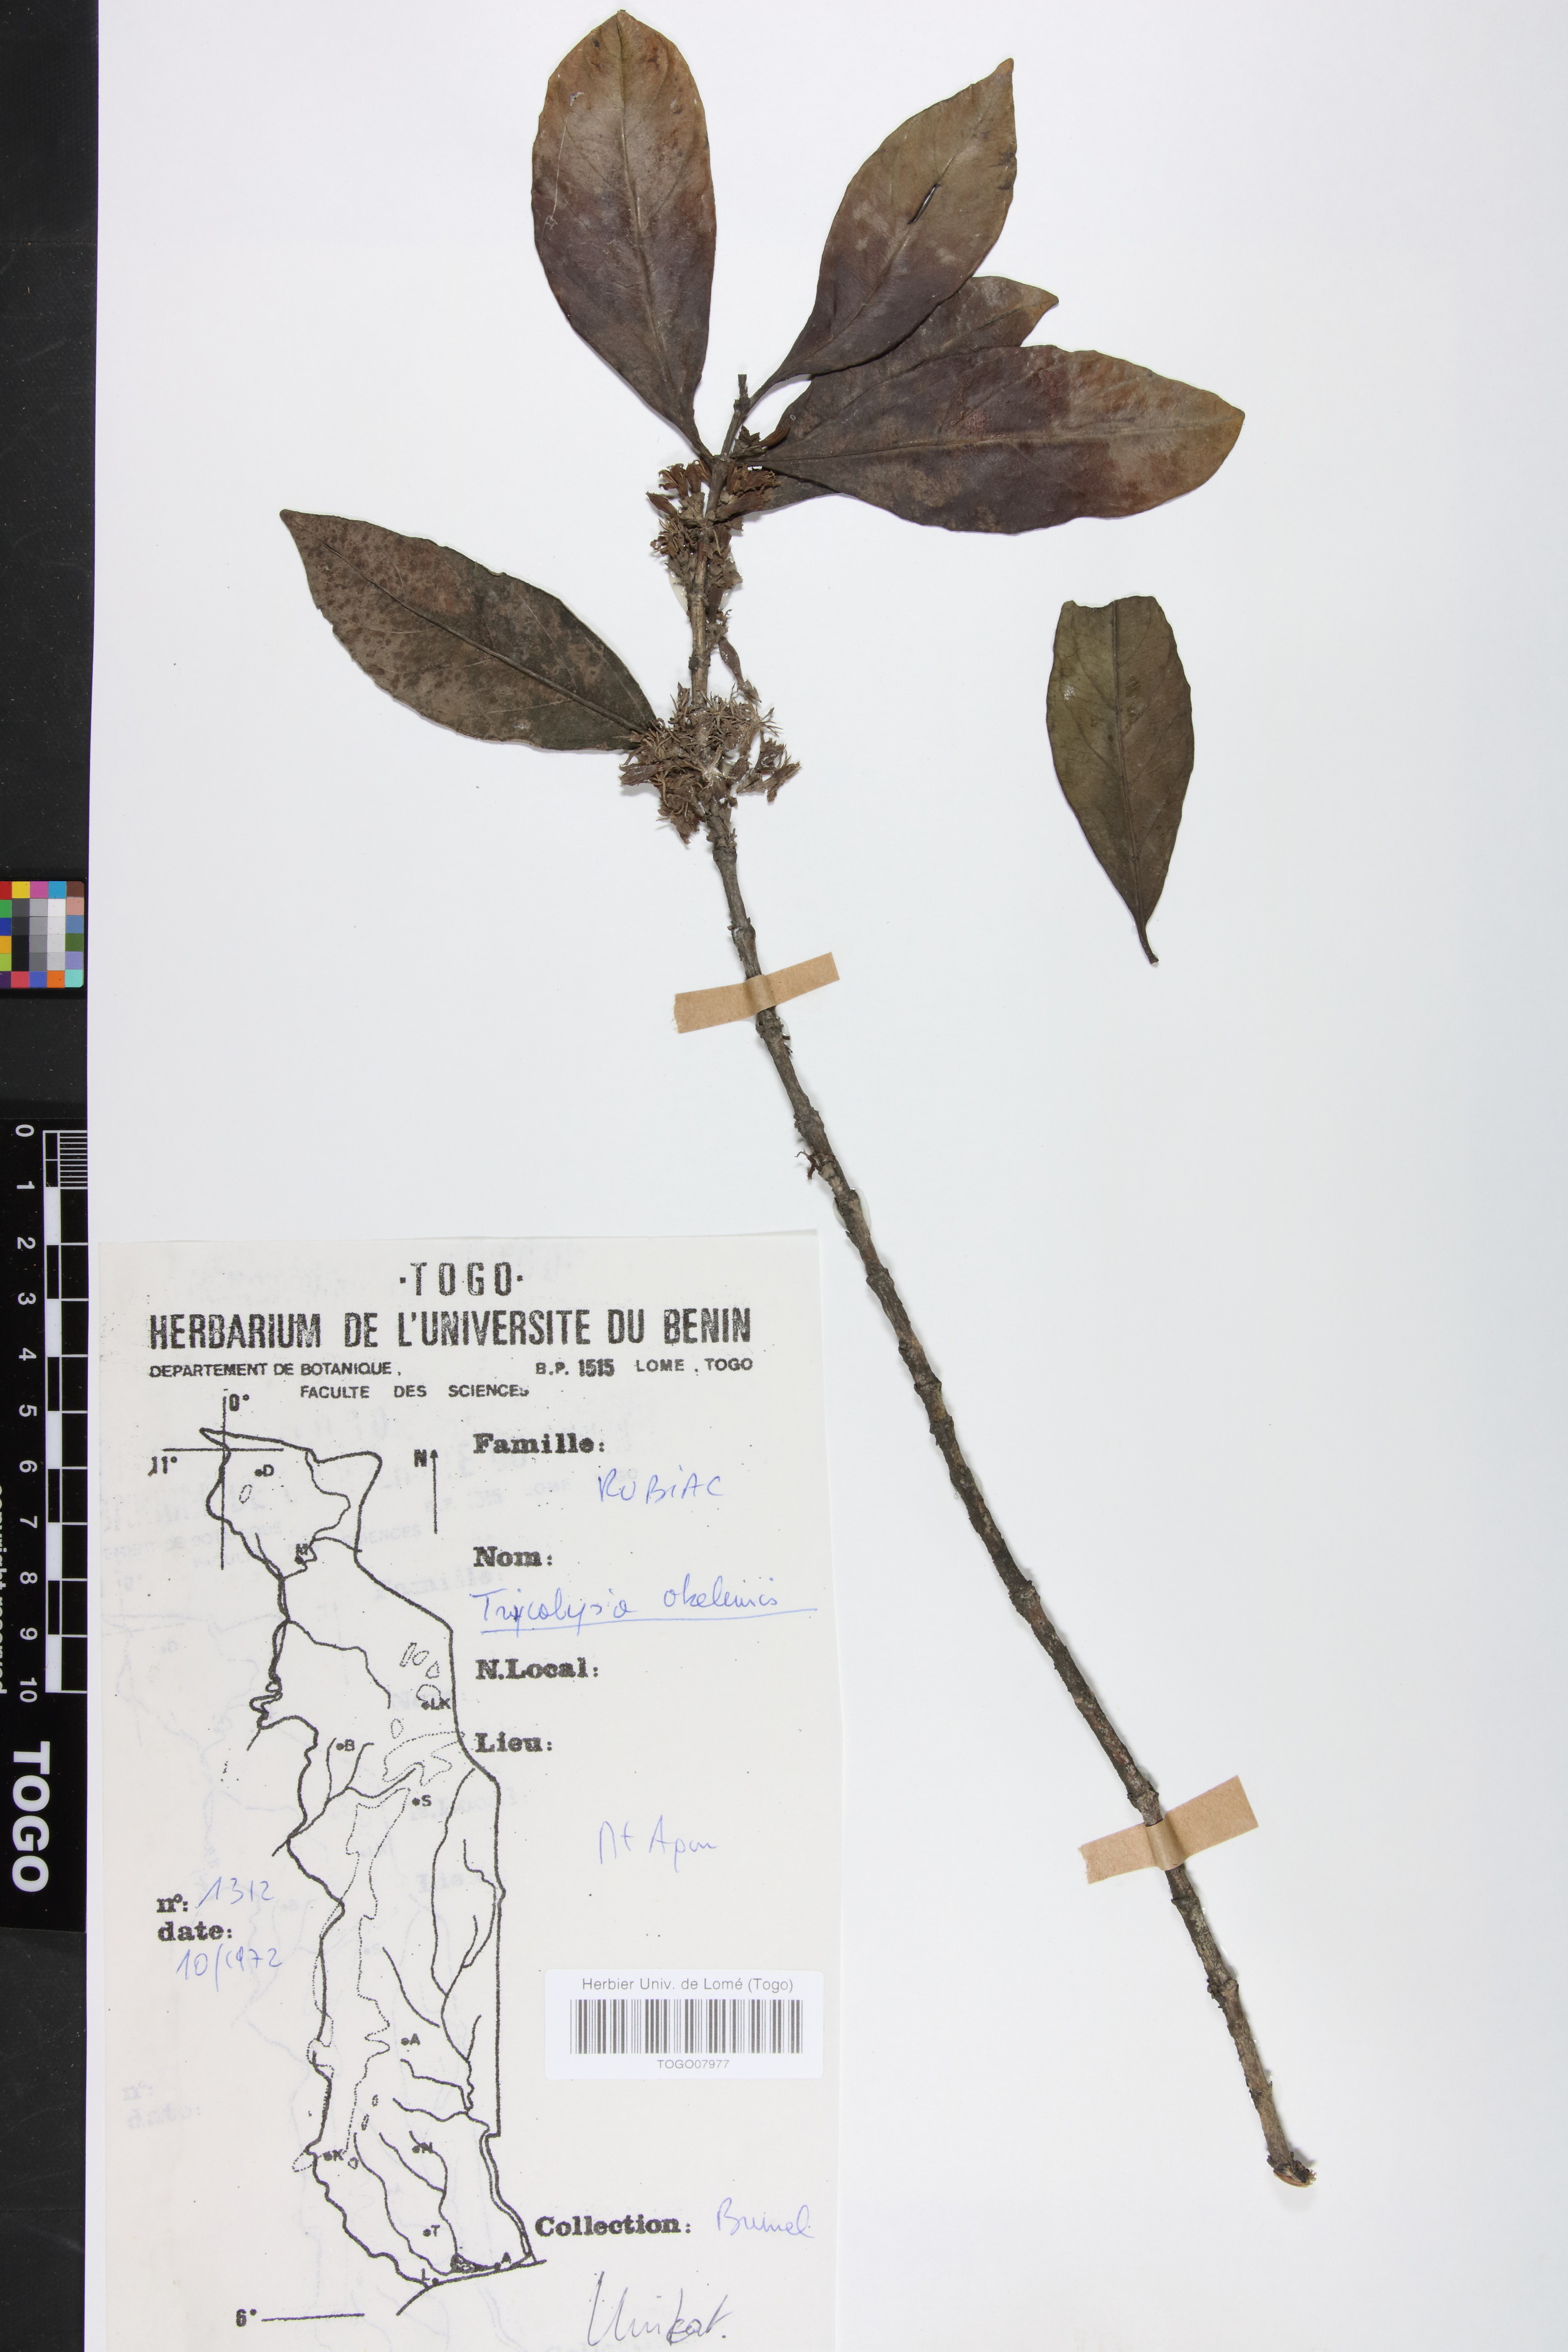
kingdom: Plantae
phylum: Tracheophyta
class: Magnoliopsida
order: Gentianales
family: Rubiaceae
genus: Tricalysia
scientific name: Tricalysia okelensis
